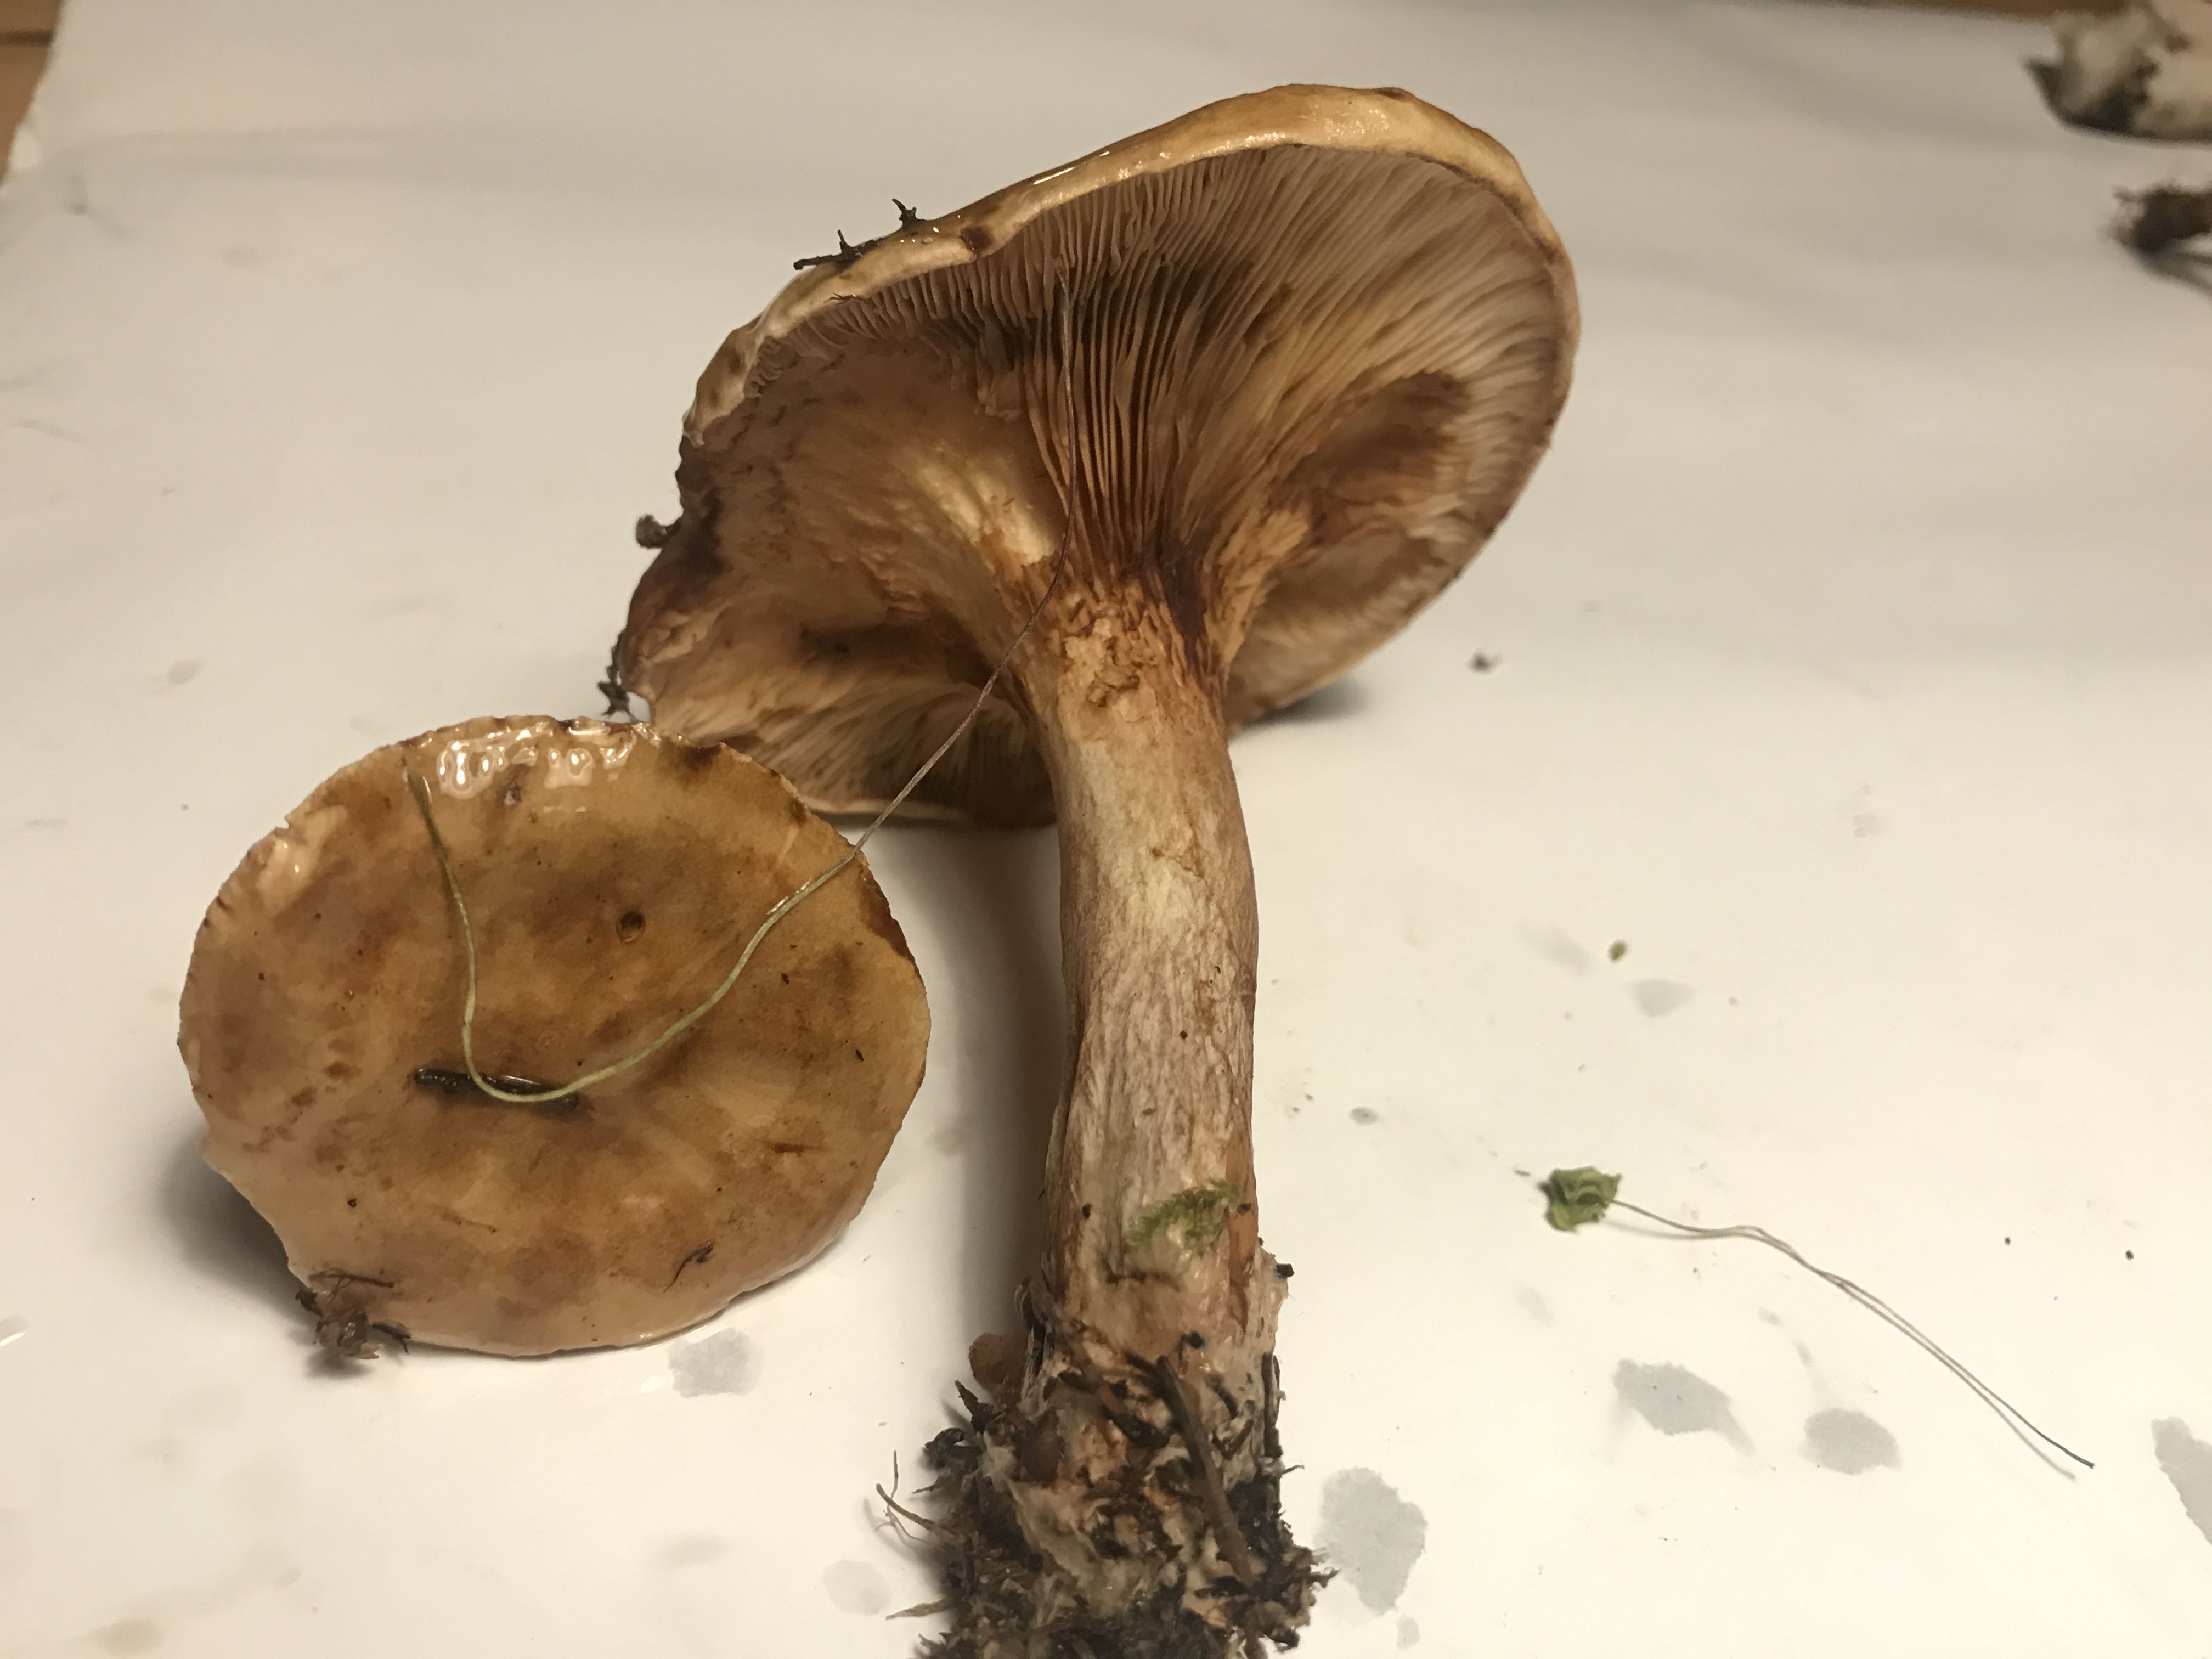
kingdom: Fungi
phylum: Basidiomycota
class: Agaricomycetes
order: Boletales
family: Paxillaceae
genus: Paxillus
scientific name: Paxillus involutus
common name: almindelig netbladhat
